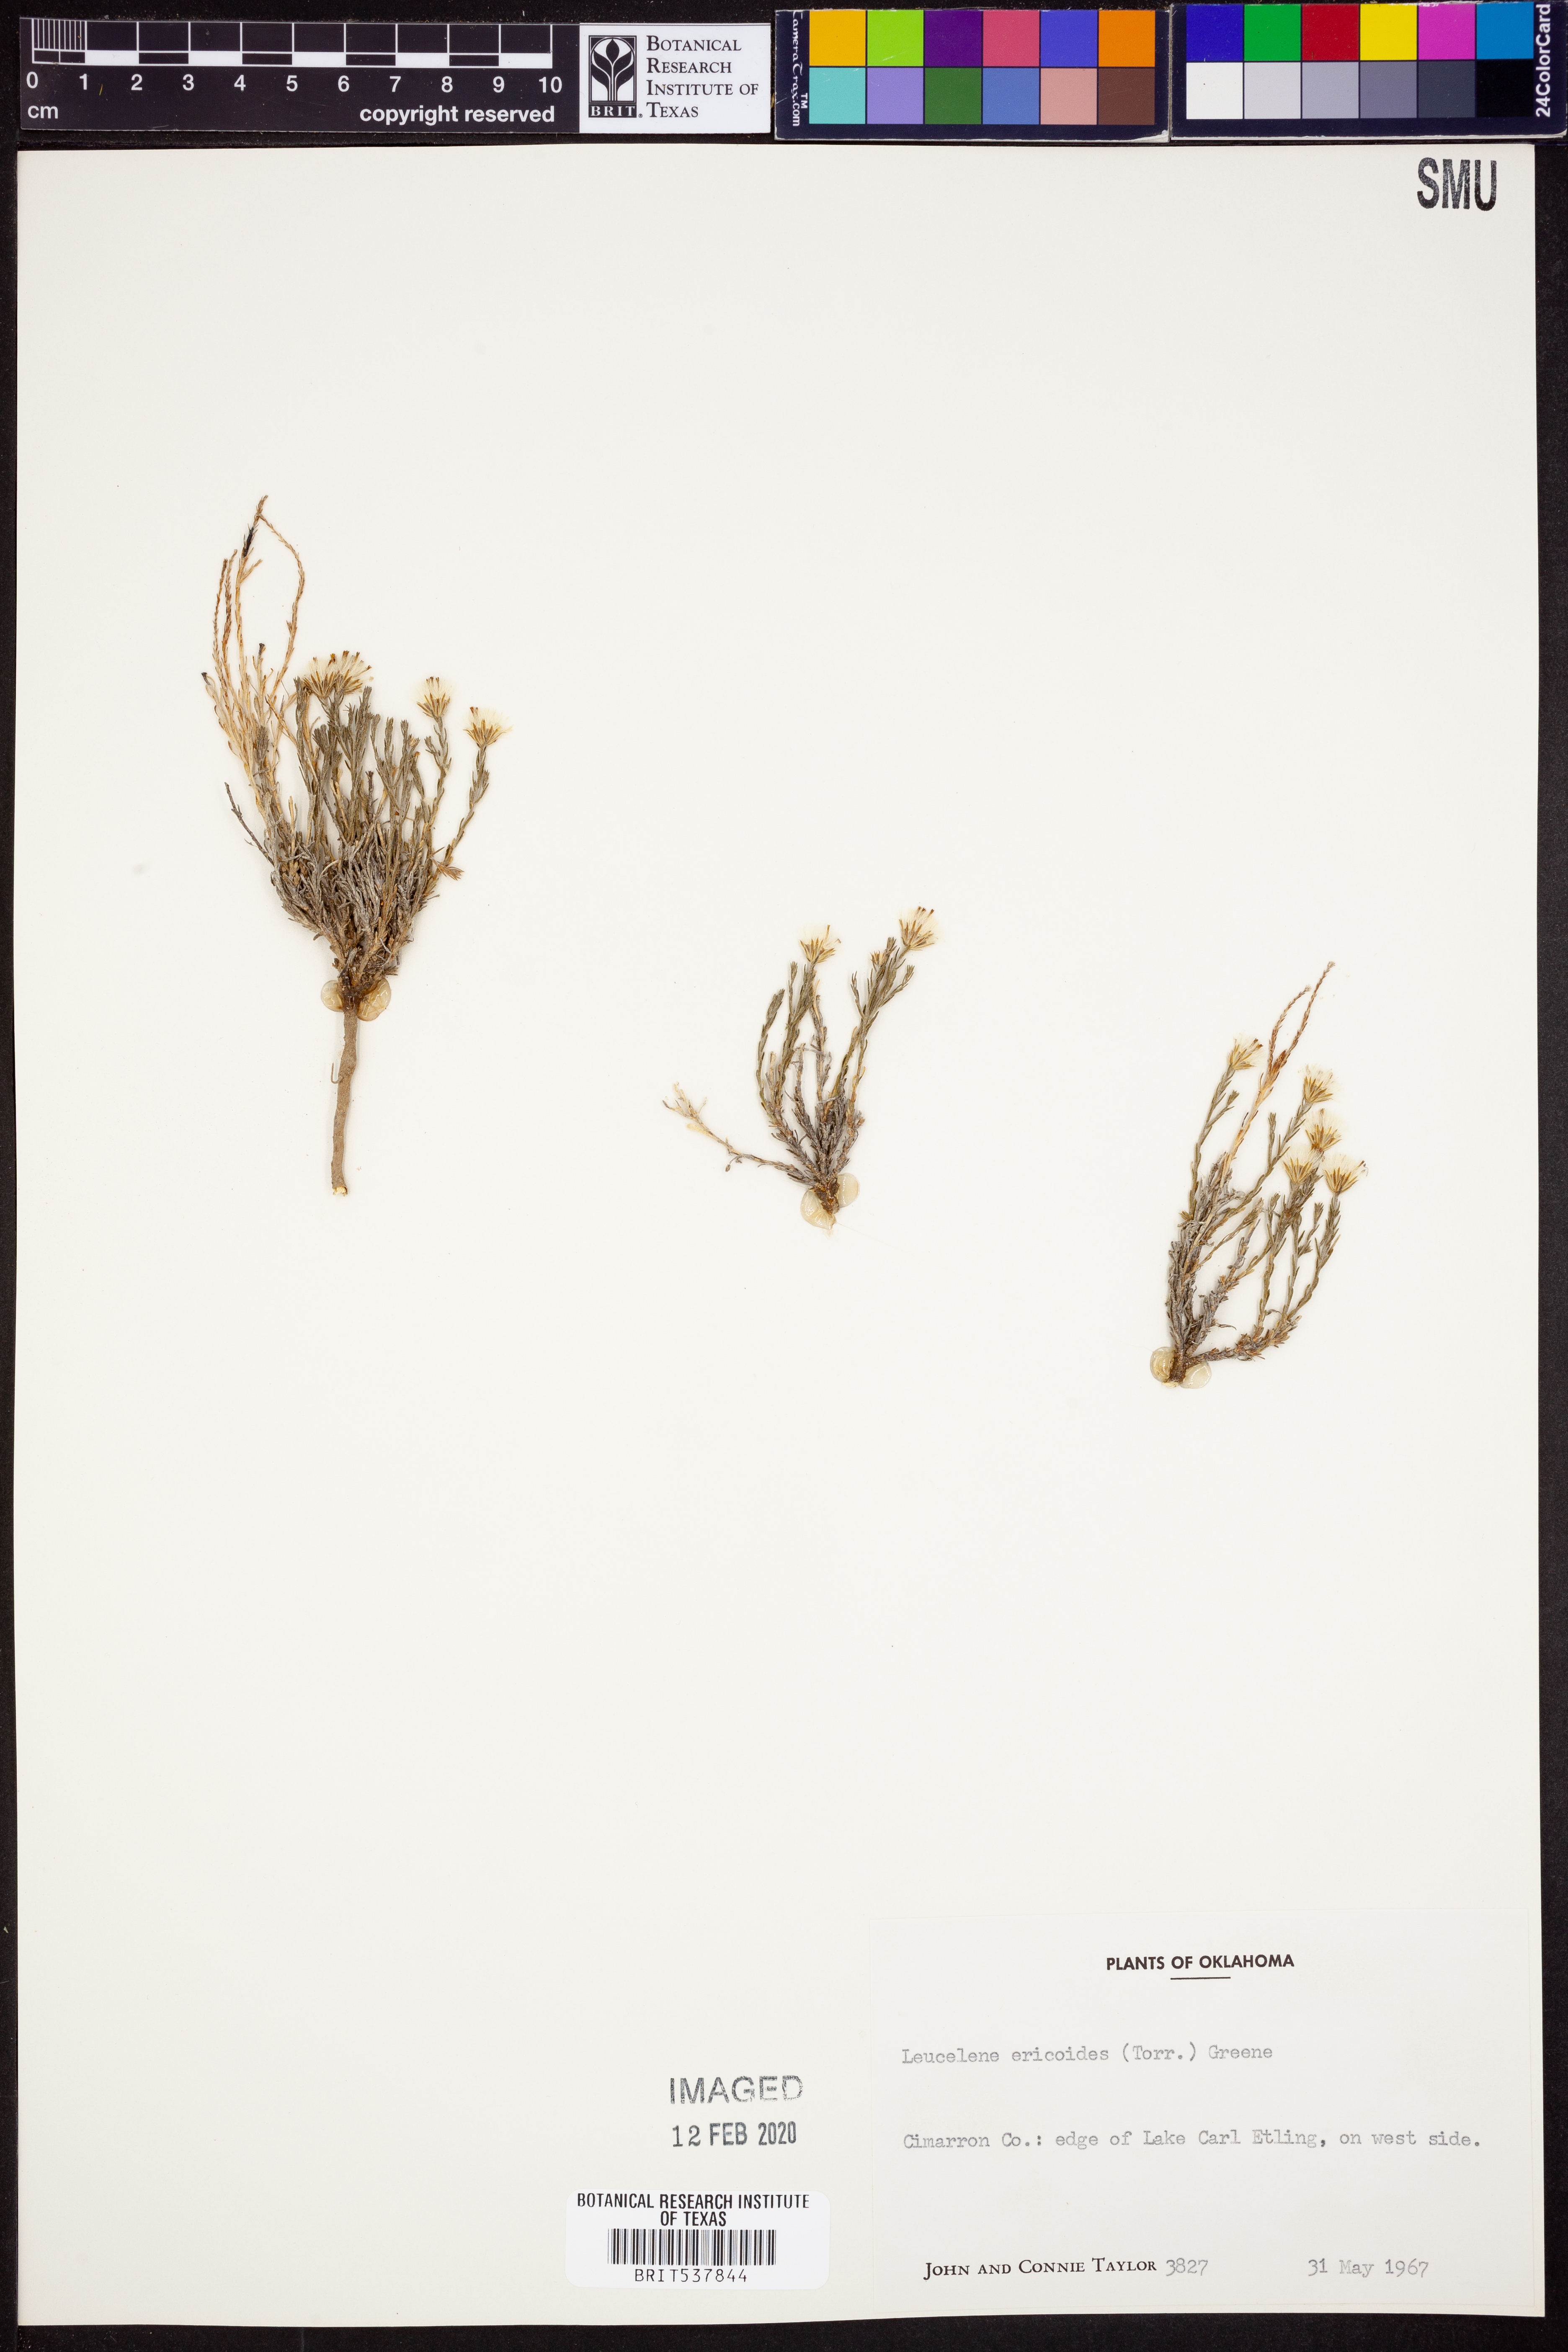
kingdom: Plantae
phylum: Tracheophyta
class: Magnoliopsida
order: Asterales
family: Asteraceae
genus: Chaetopappa
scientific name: Chaetopappa ericoides
